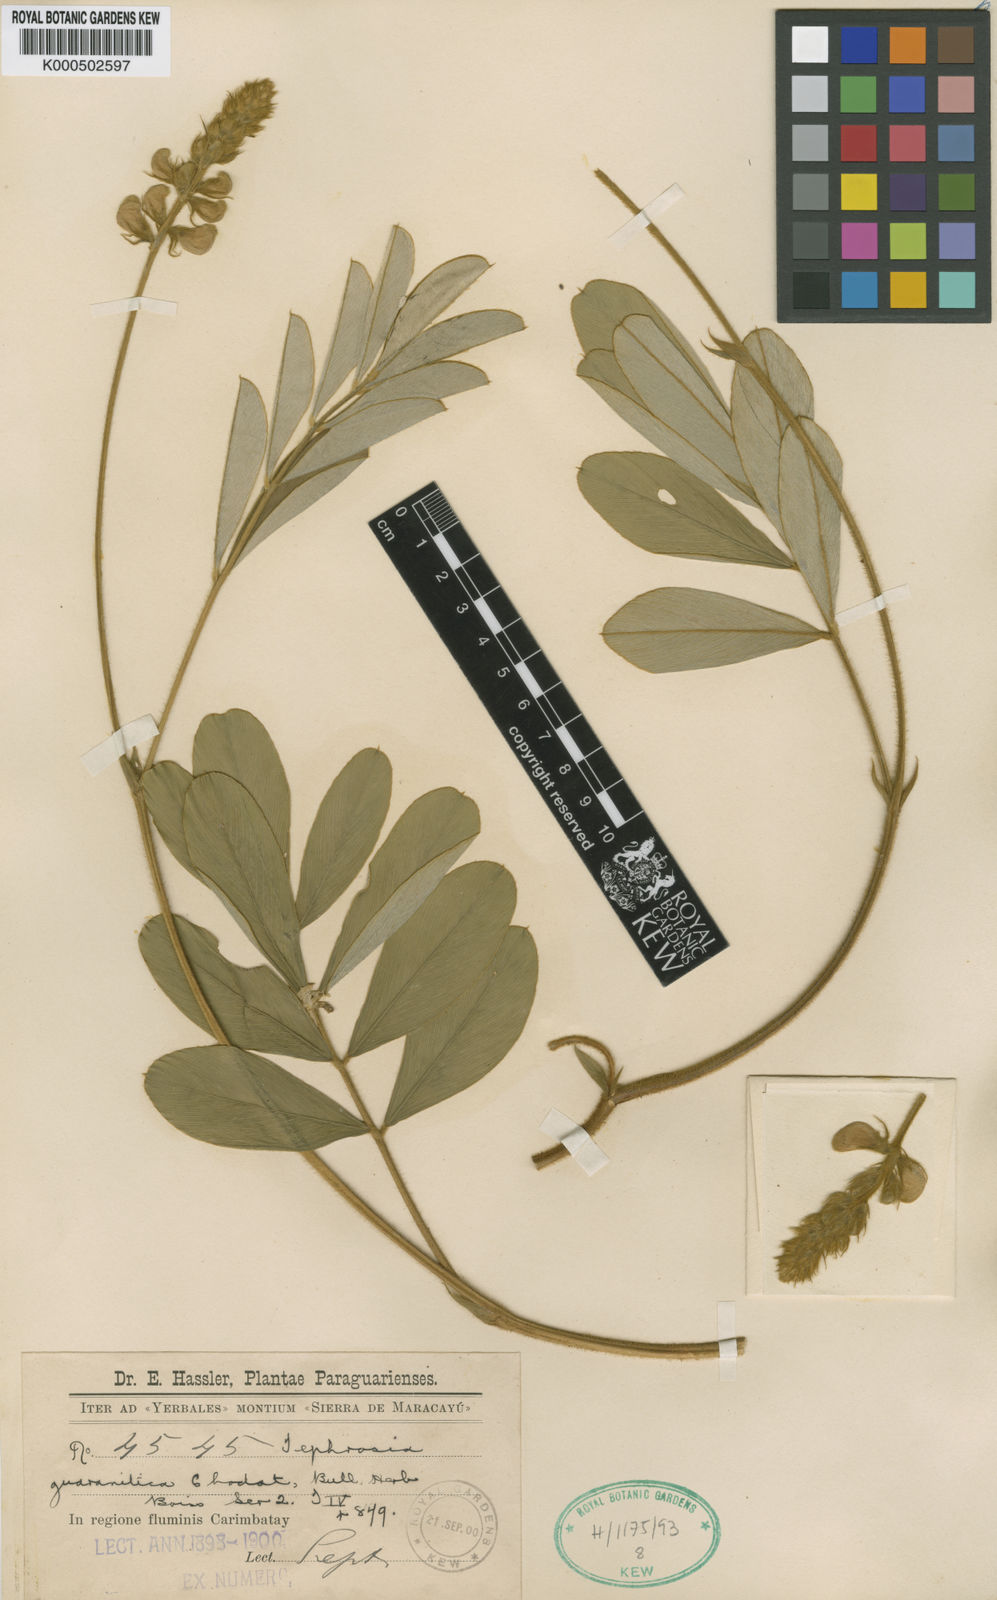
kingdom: Plantae
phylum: Tracheophyta
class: Magnoliopsida
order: Fabales
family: Fabaceae
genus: Tephrosia
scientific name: Tephrosia guaranitica
